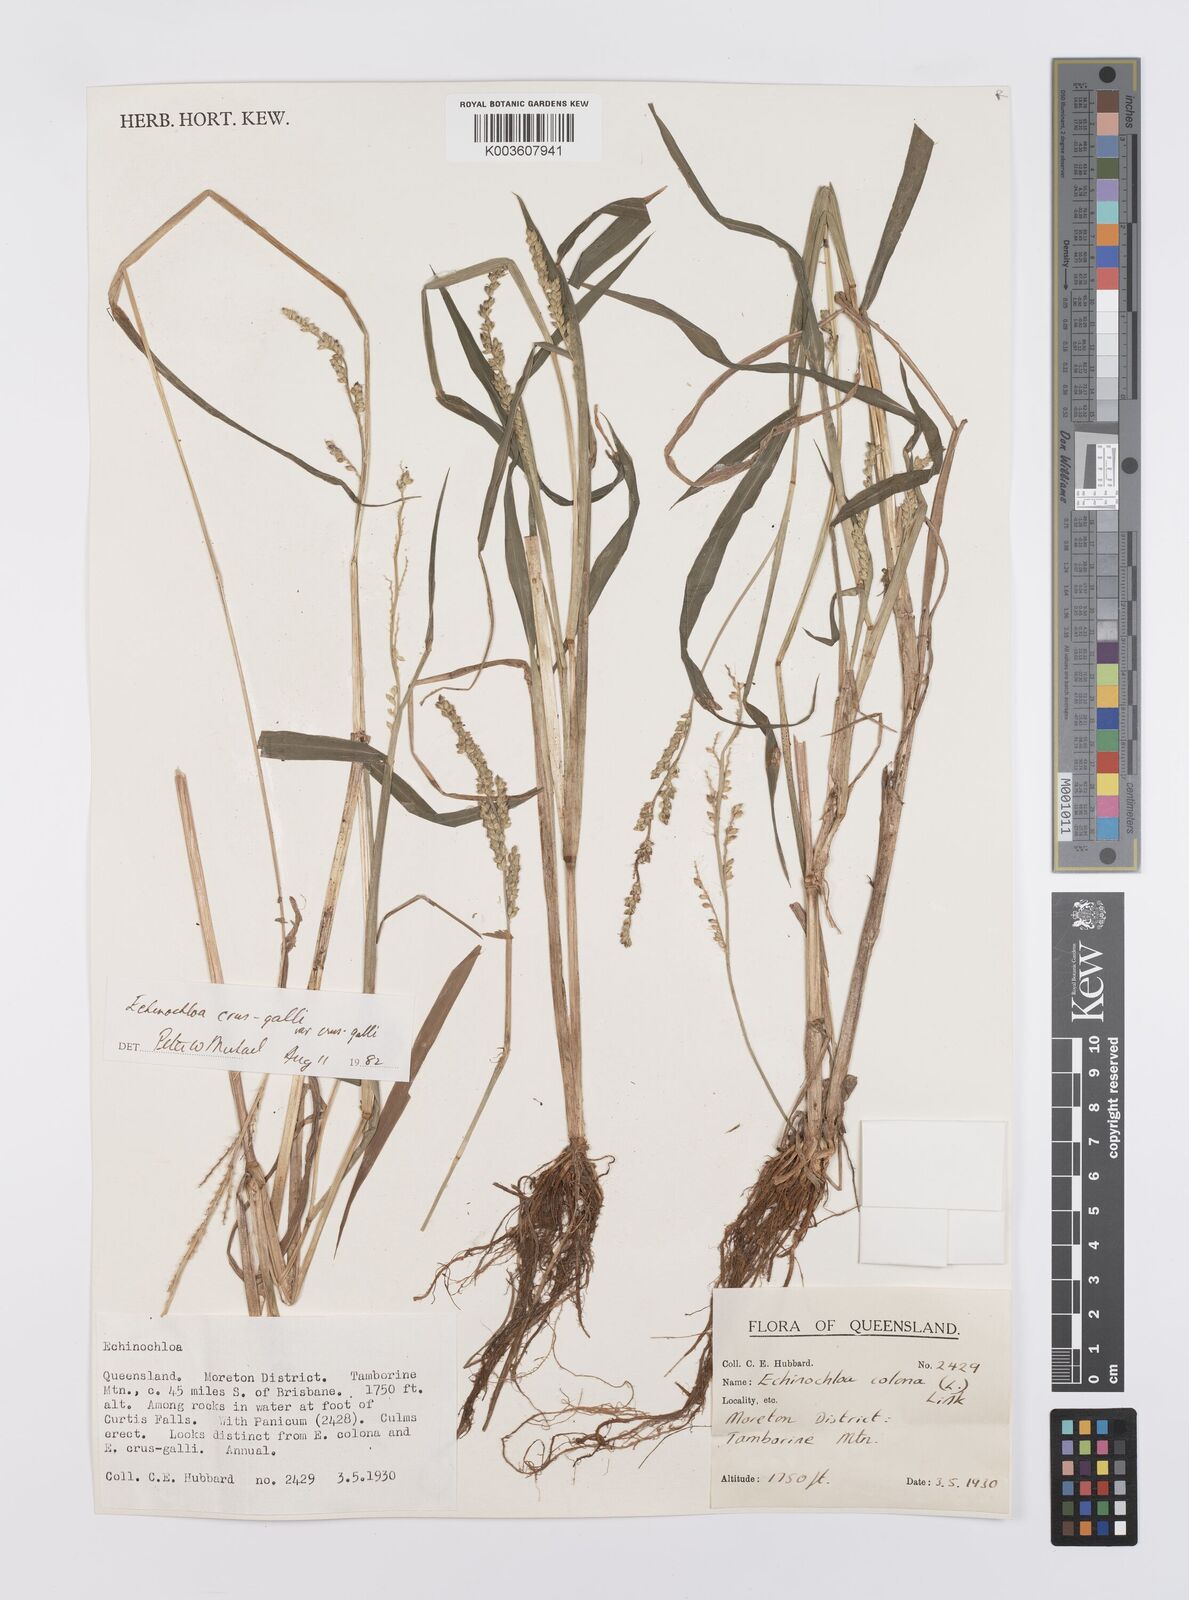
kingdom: Plantae
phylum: Tracheophyta
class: Liliopsida
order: Poales
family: Poaceae
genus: Echinochloa
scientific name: Echinochloa crus-galli
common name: Cockspur
